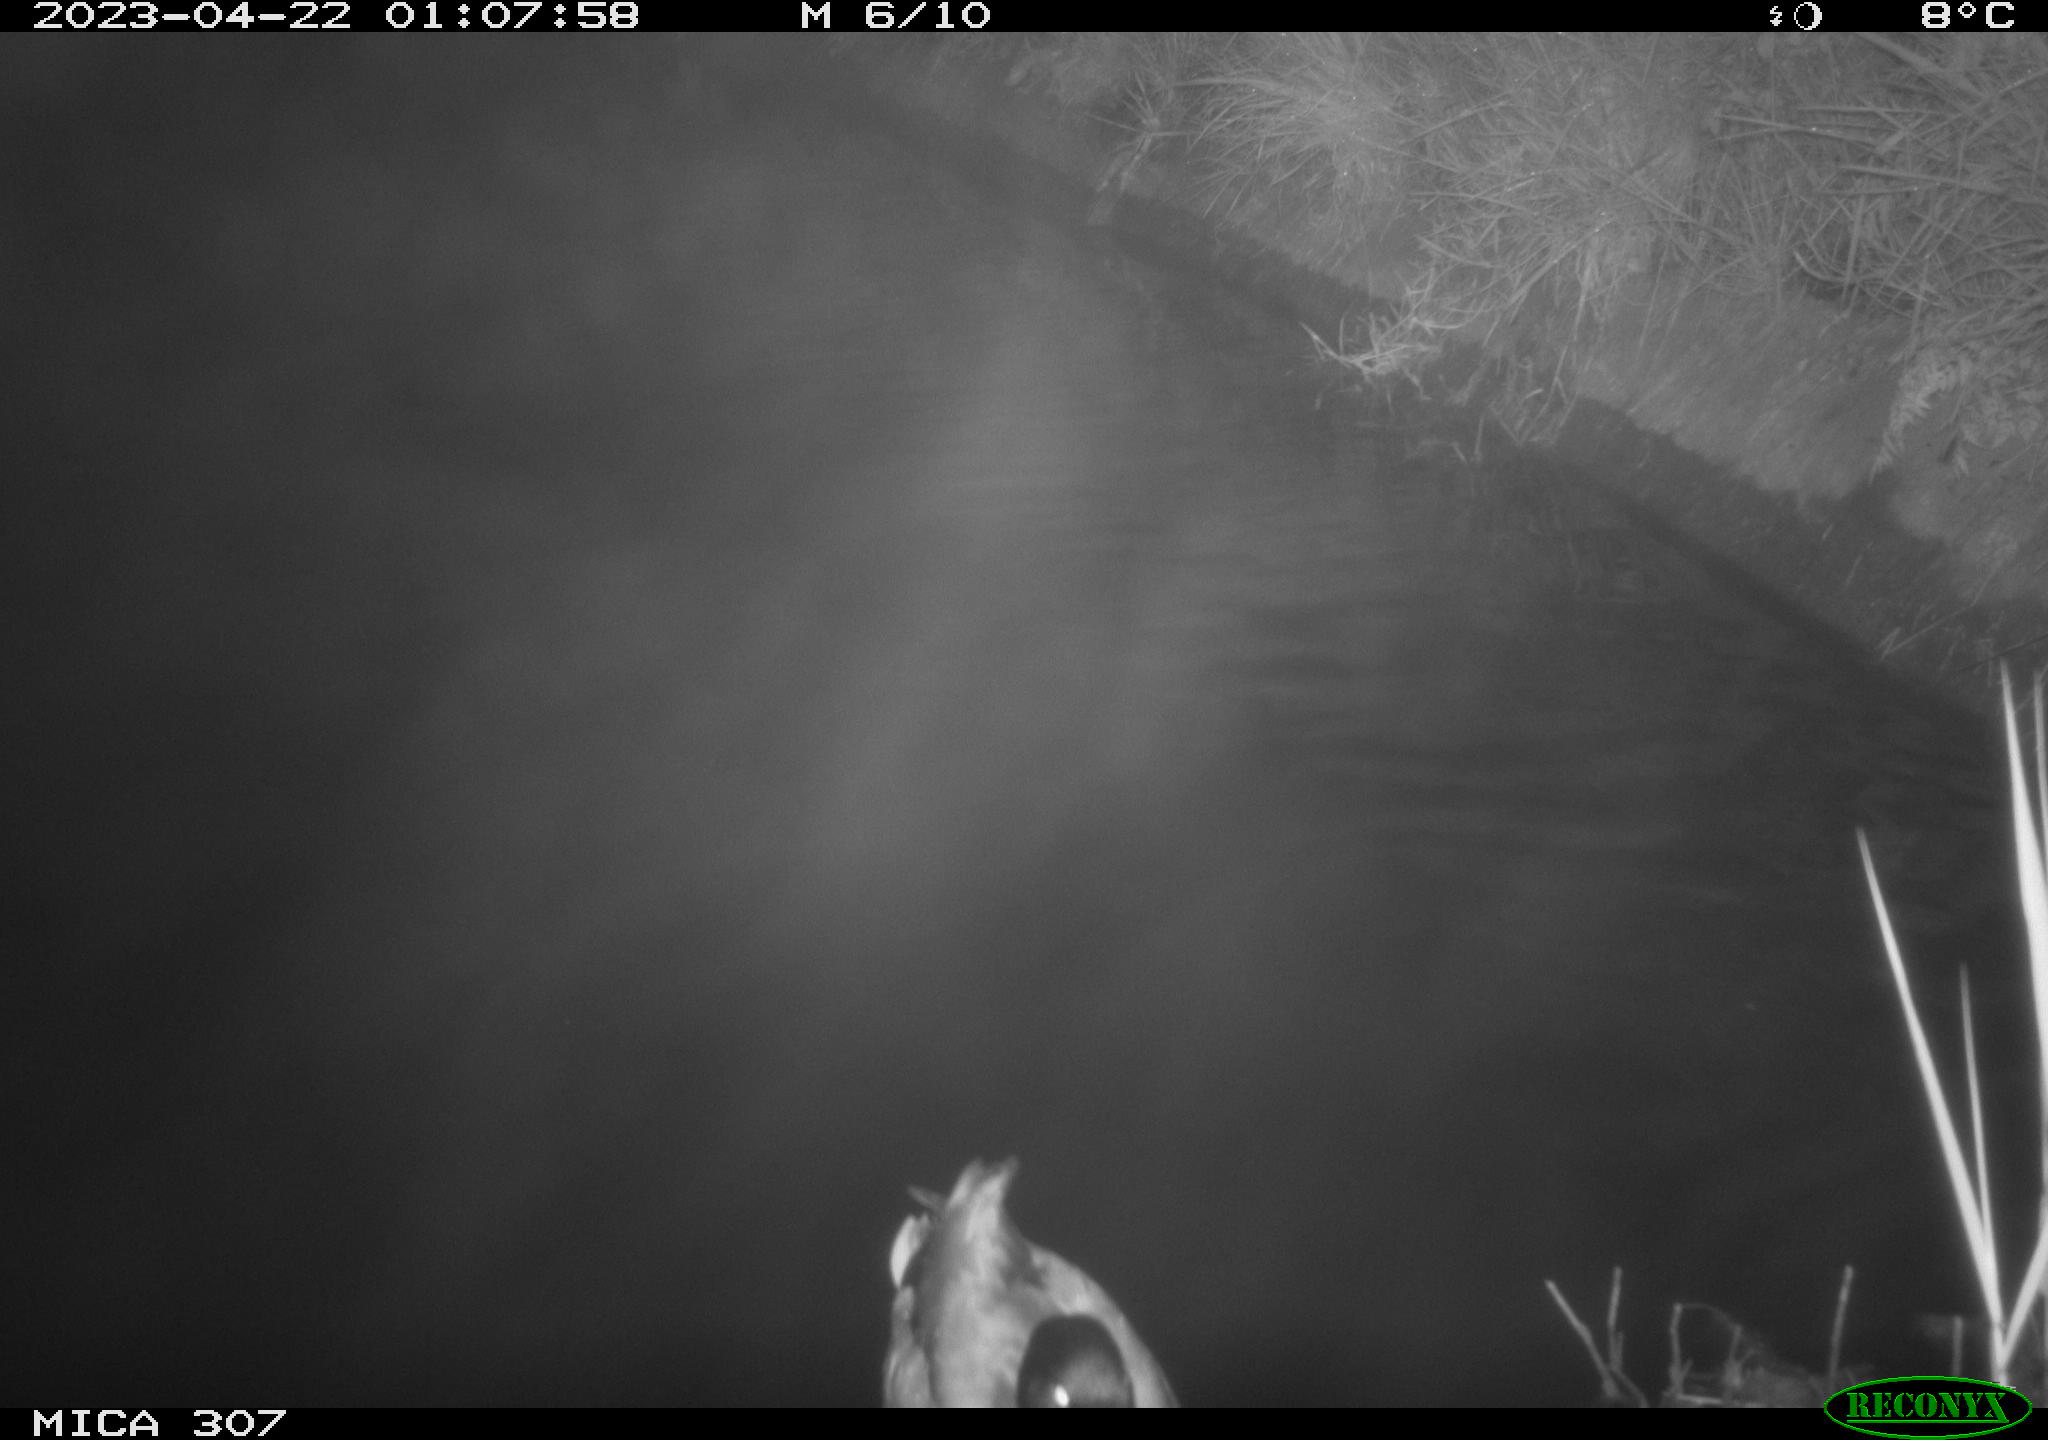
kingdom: Animalia
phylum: Chordata
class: Aves
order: Anseriformes
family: Anatidae
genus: Anas
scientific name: Anas
